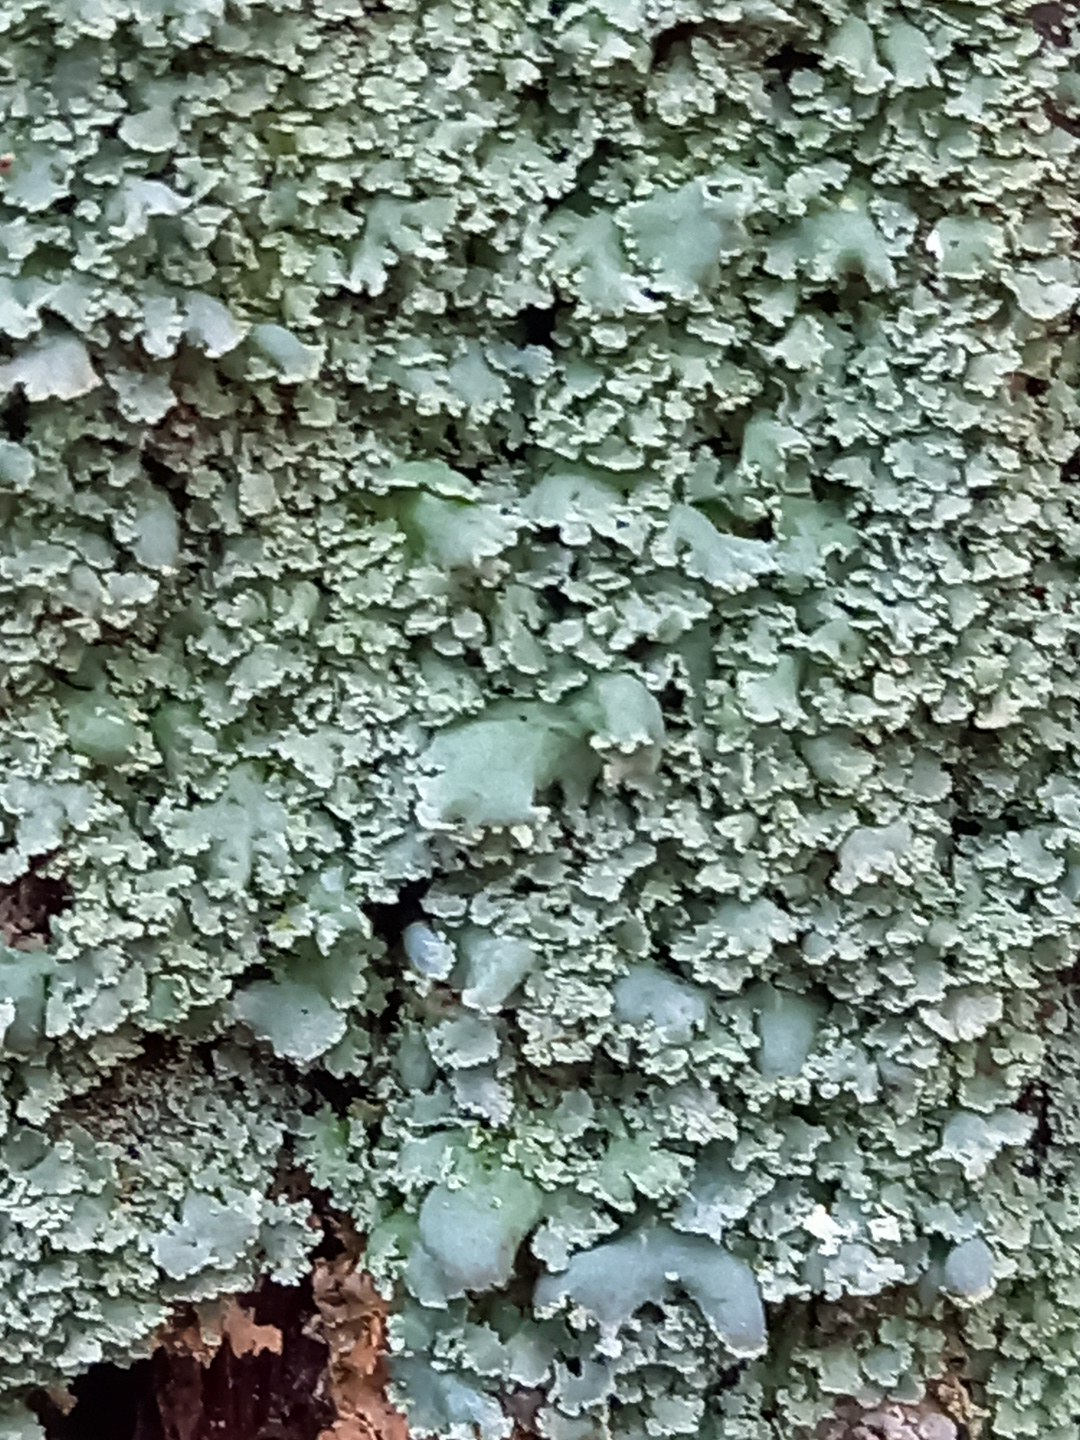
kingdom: Fungi
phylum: Ascomycota
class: Lecanoromycetes
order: Lecanorales
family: Cladoniaceae
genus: Cladonia
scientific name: Cladonia digitata
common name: finger-bægerlav
